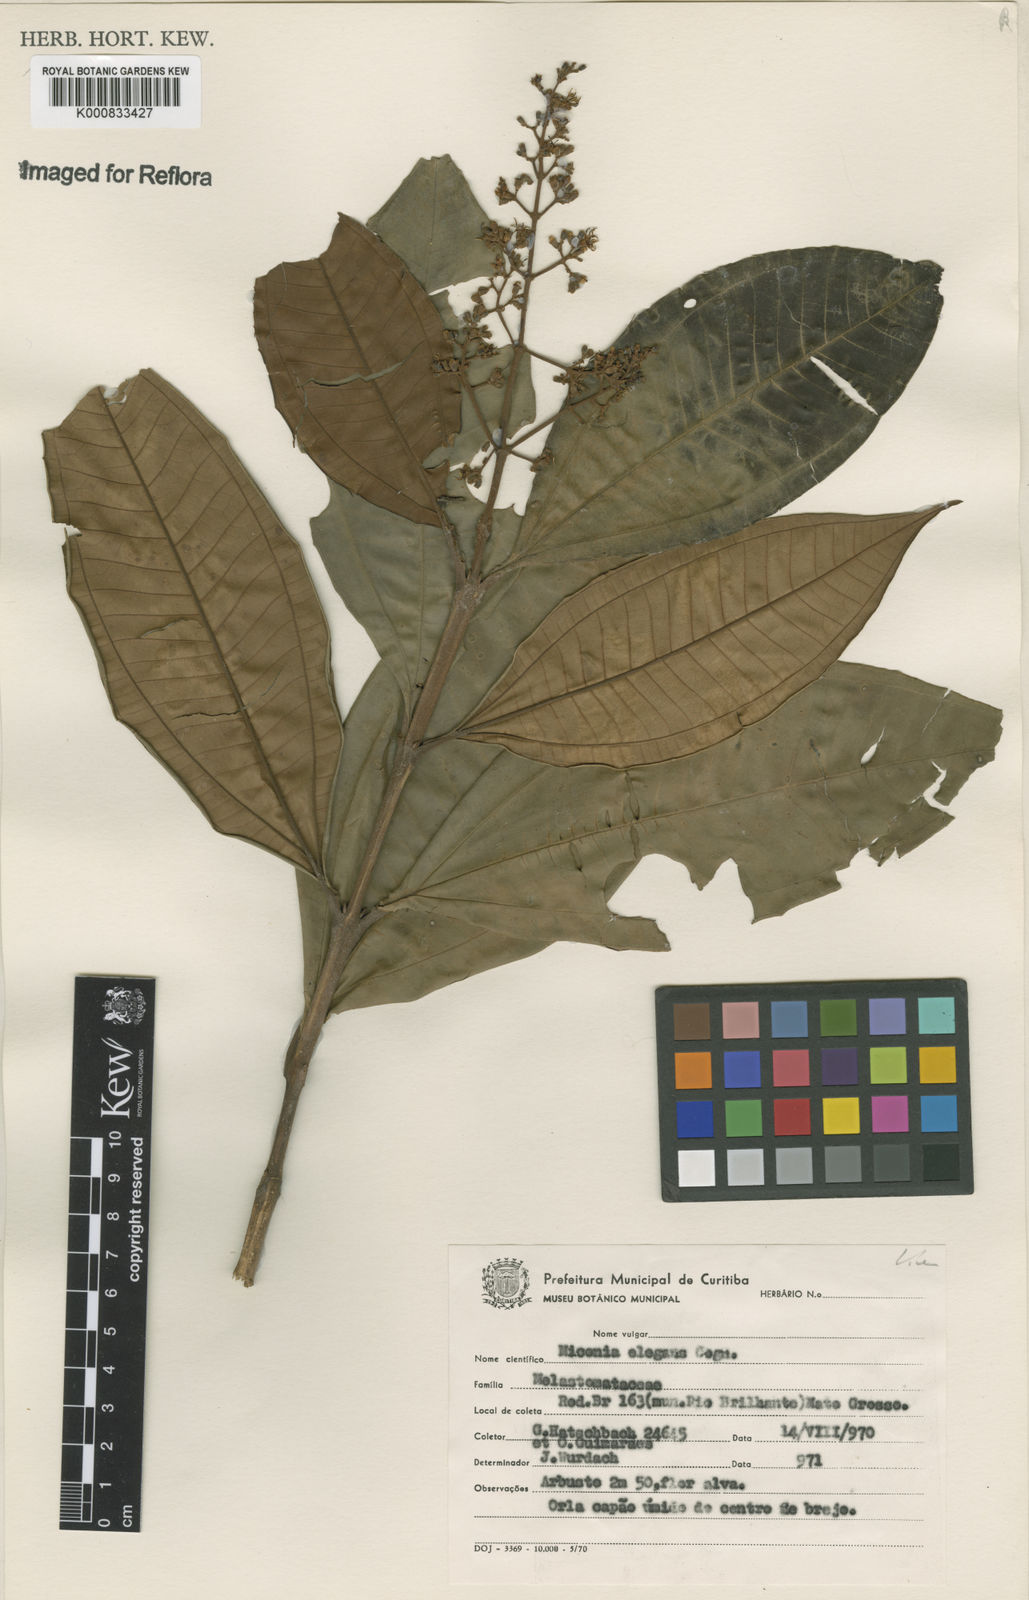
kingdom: Plantae
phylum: Tracheophyta
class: Magnoliopsida
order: Myrtales
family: Melastomataceae
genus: Miconia
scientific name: Miconia elegans
